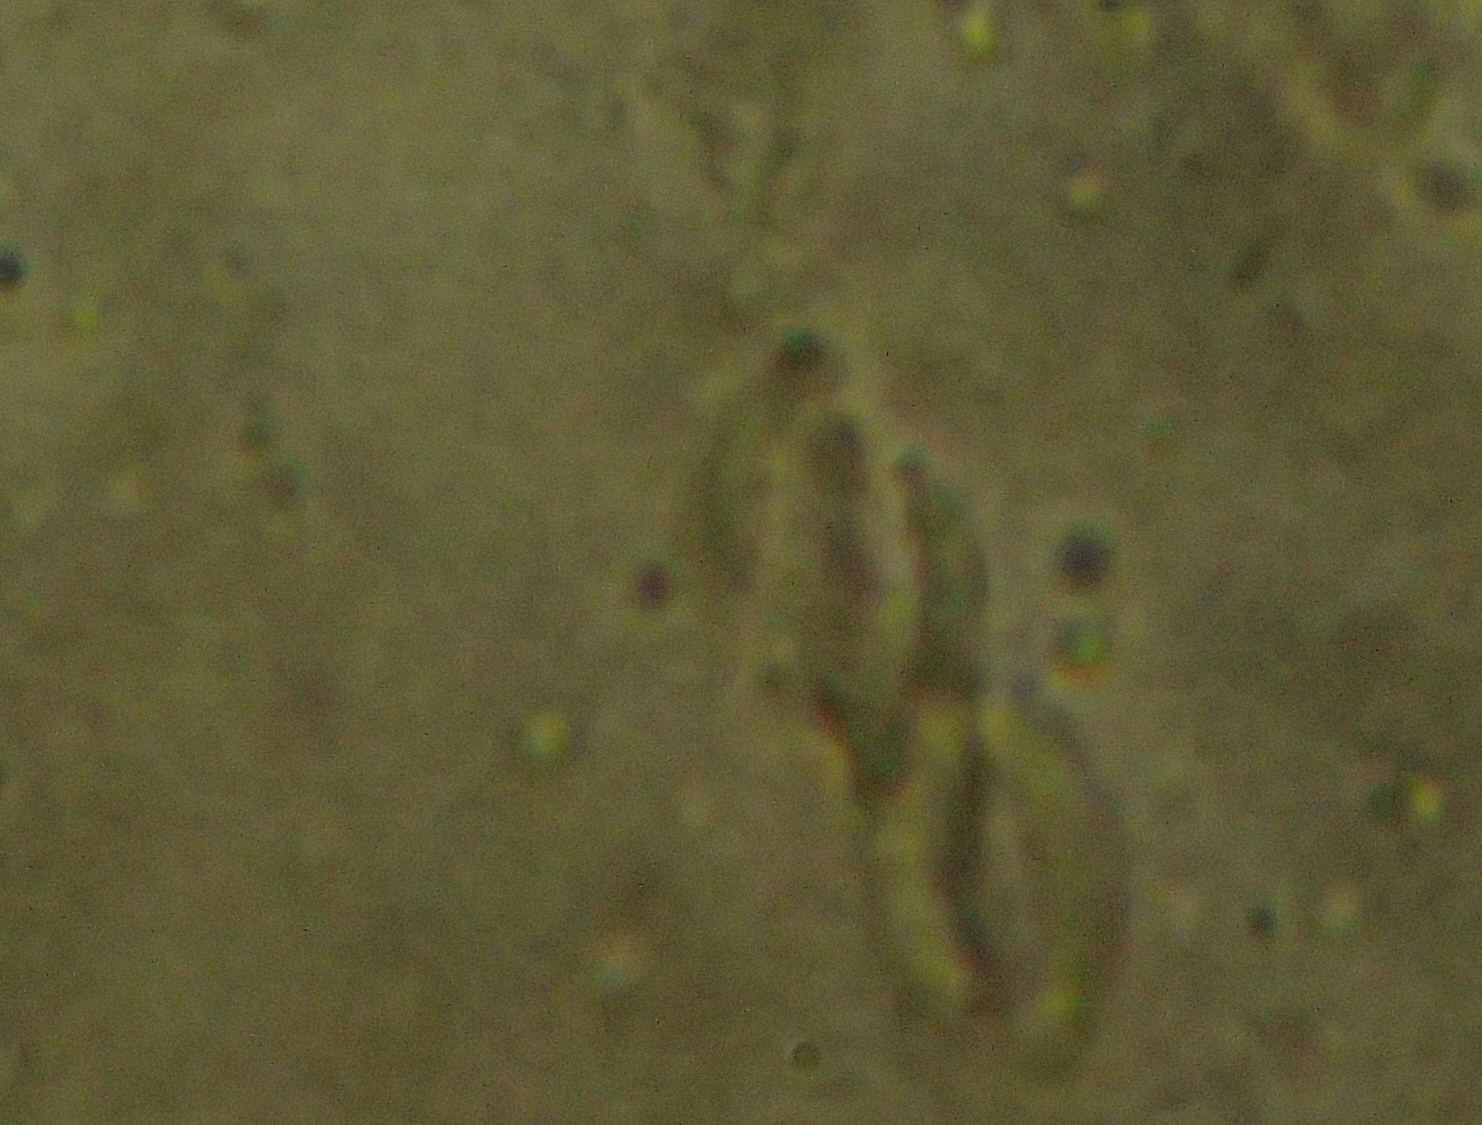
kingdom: Fungi
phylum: Ascomycota
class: Sordariomycetes
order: Xylariales
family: Diatrypaceae
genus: Eutypella
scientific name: Eutypella prunastri
